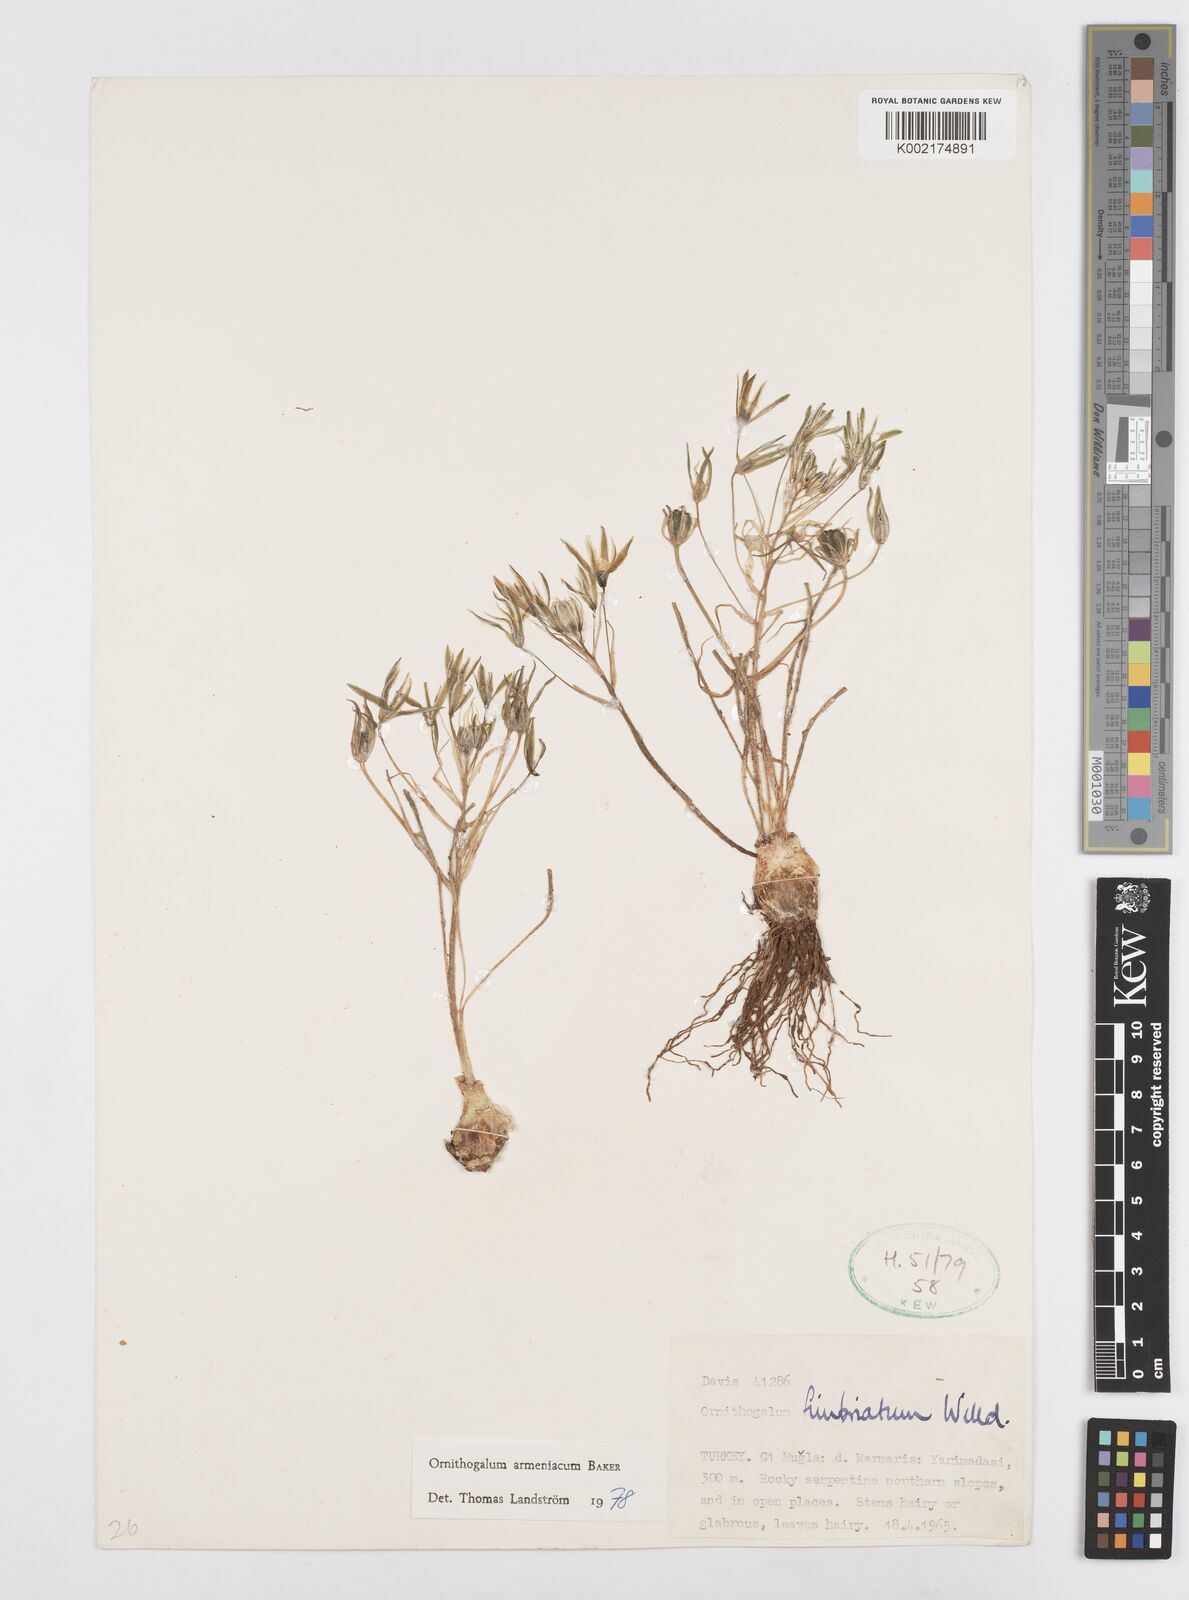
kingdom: Plantae
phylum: Tracheophyta
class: Liliopsida
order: Asparagales
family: Asparagaceae
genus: Ornithogalum
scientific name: Ornithogalum armeniacum
